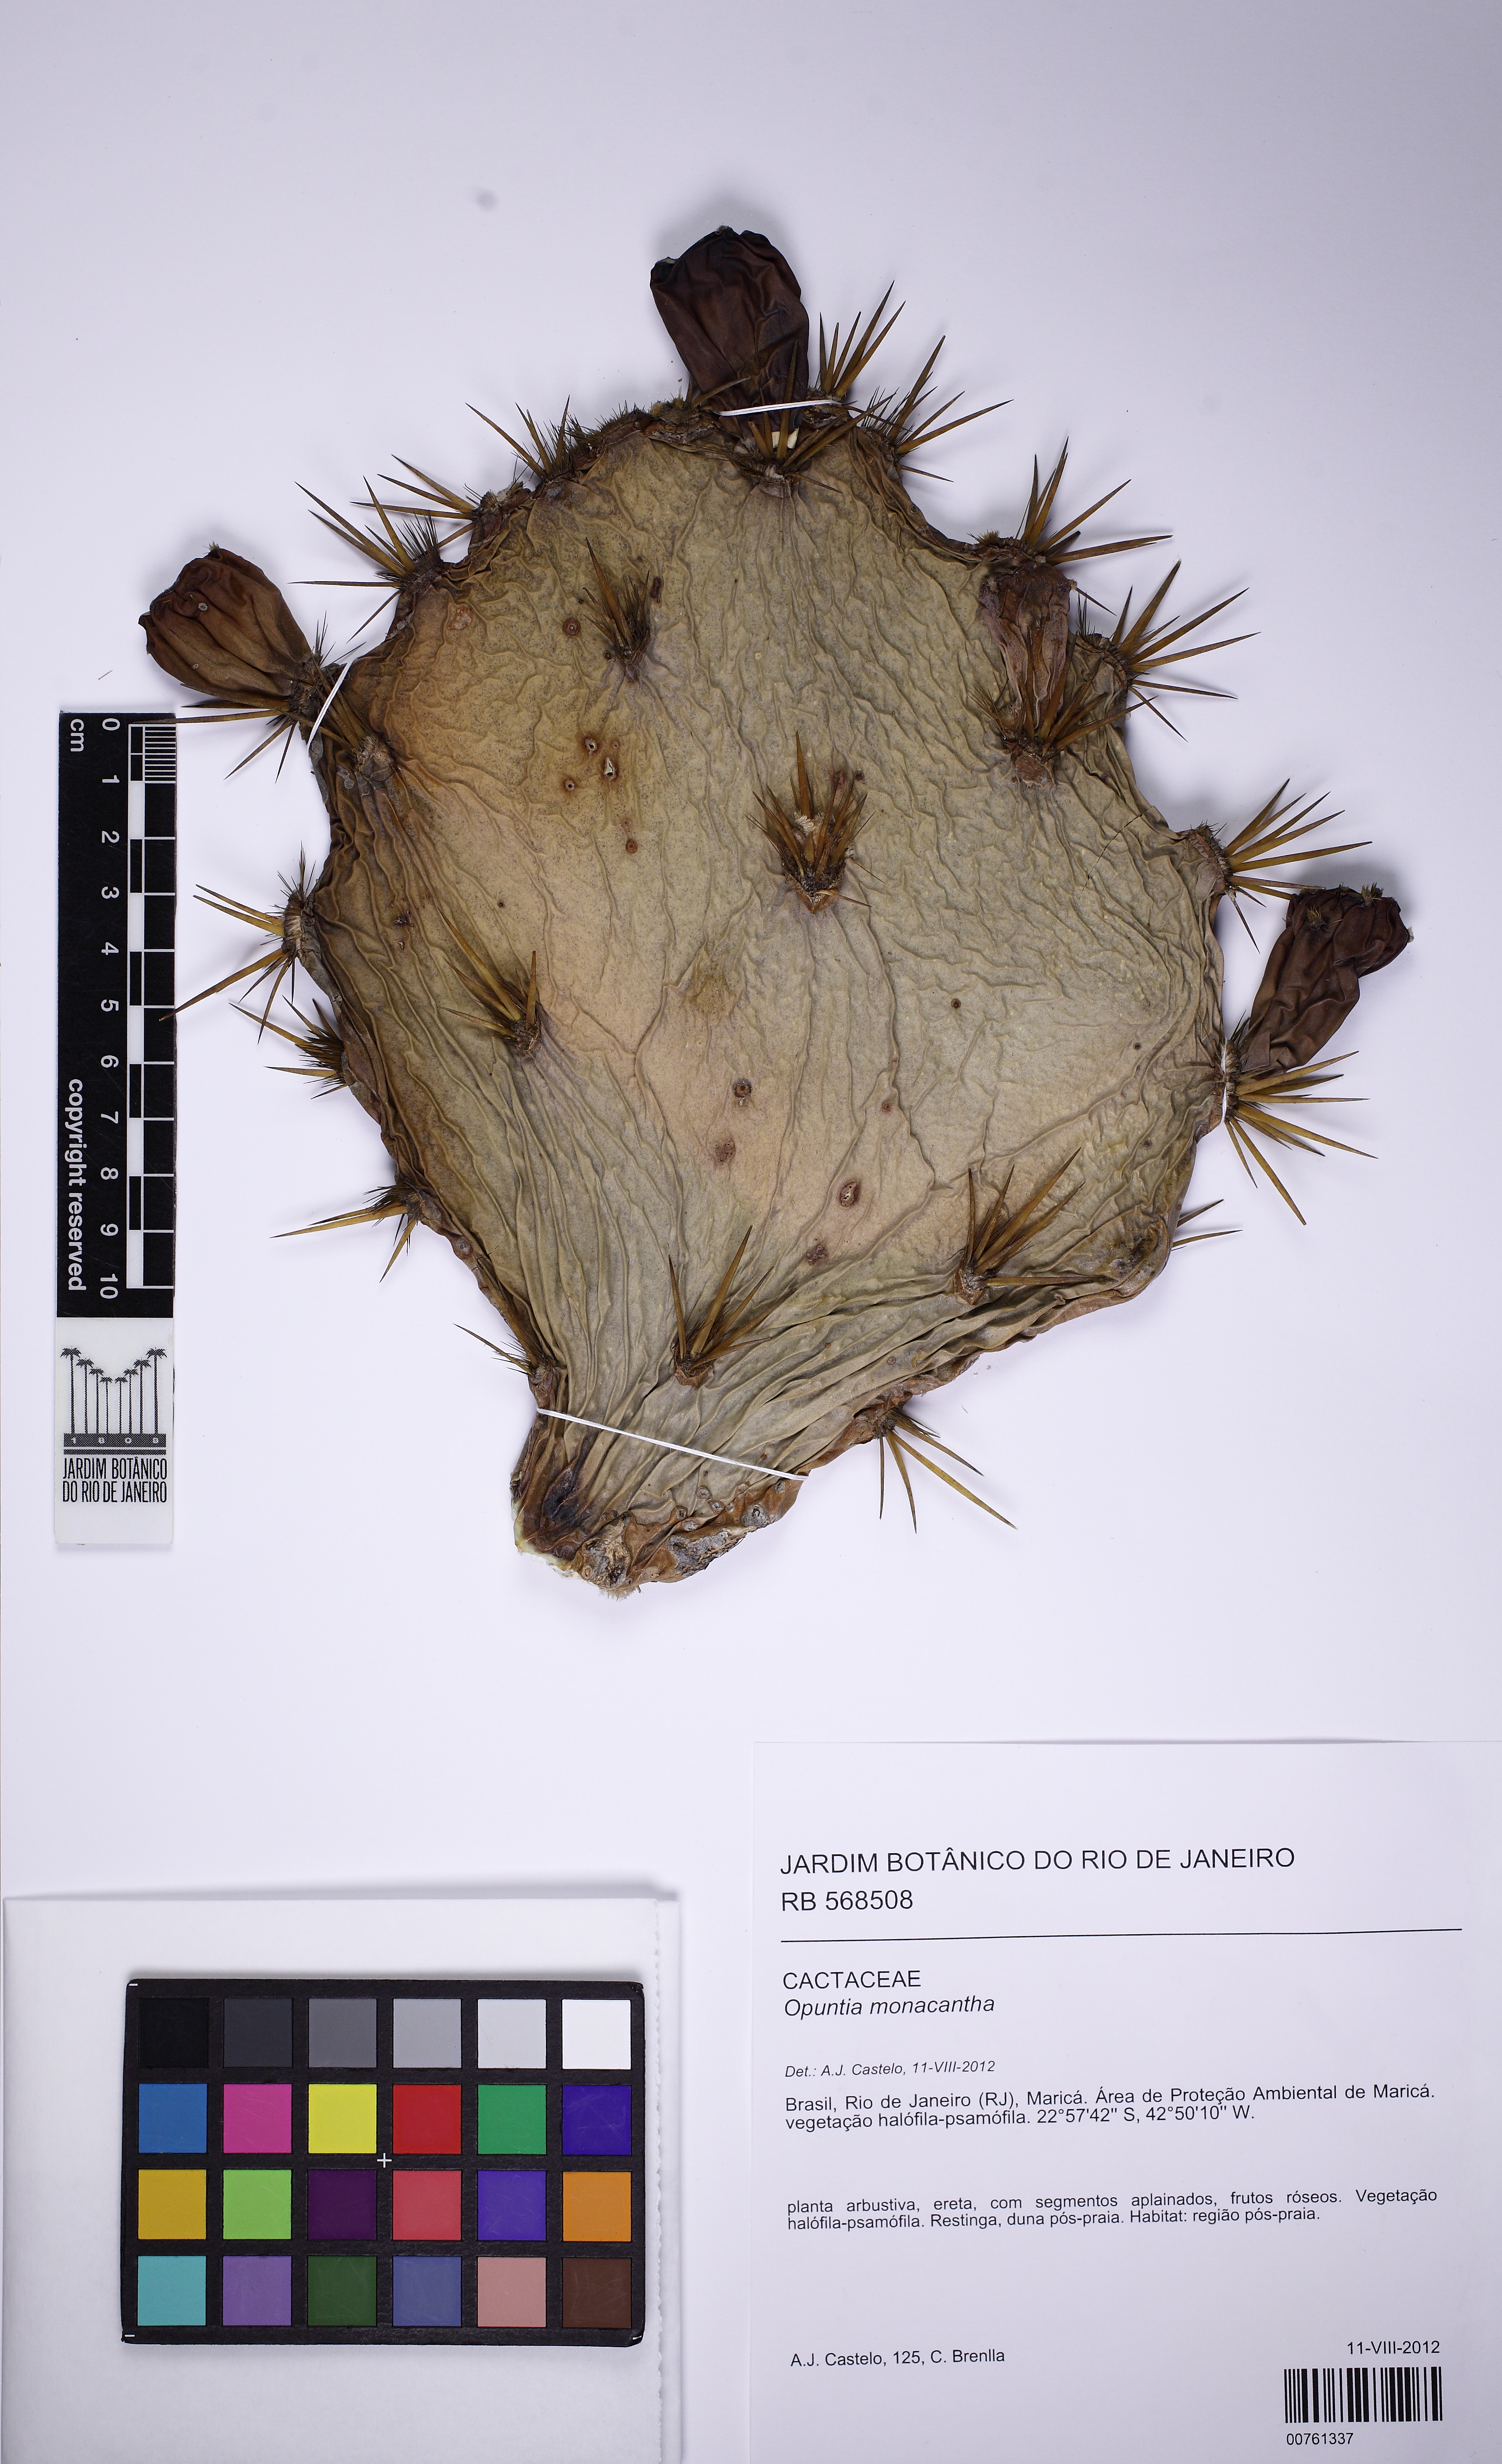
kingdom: Plantae
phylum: Tracheophyta
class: Magnoliopsida
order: Caryophyllales
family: Cactaceae
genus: Opuntia
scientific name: Opuntia stricta
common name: Erect pricklypear
